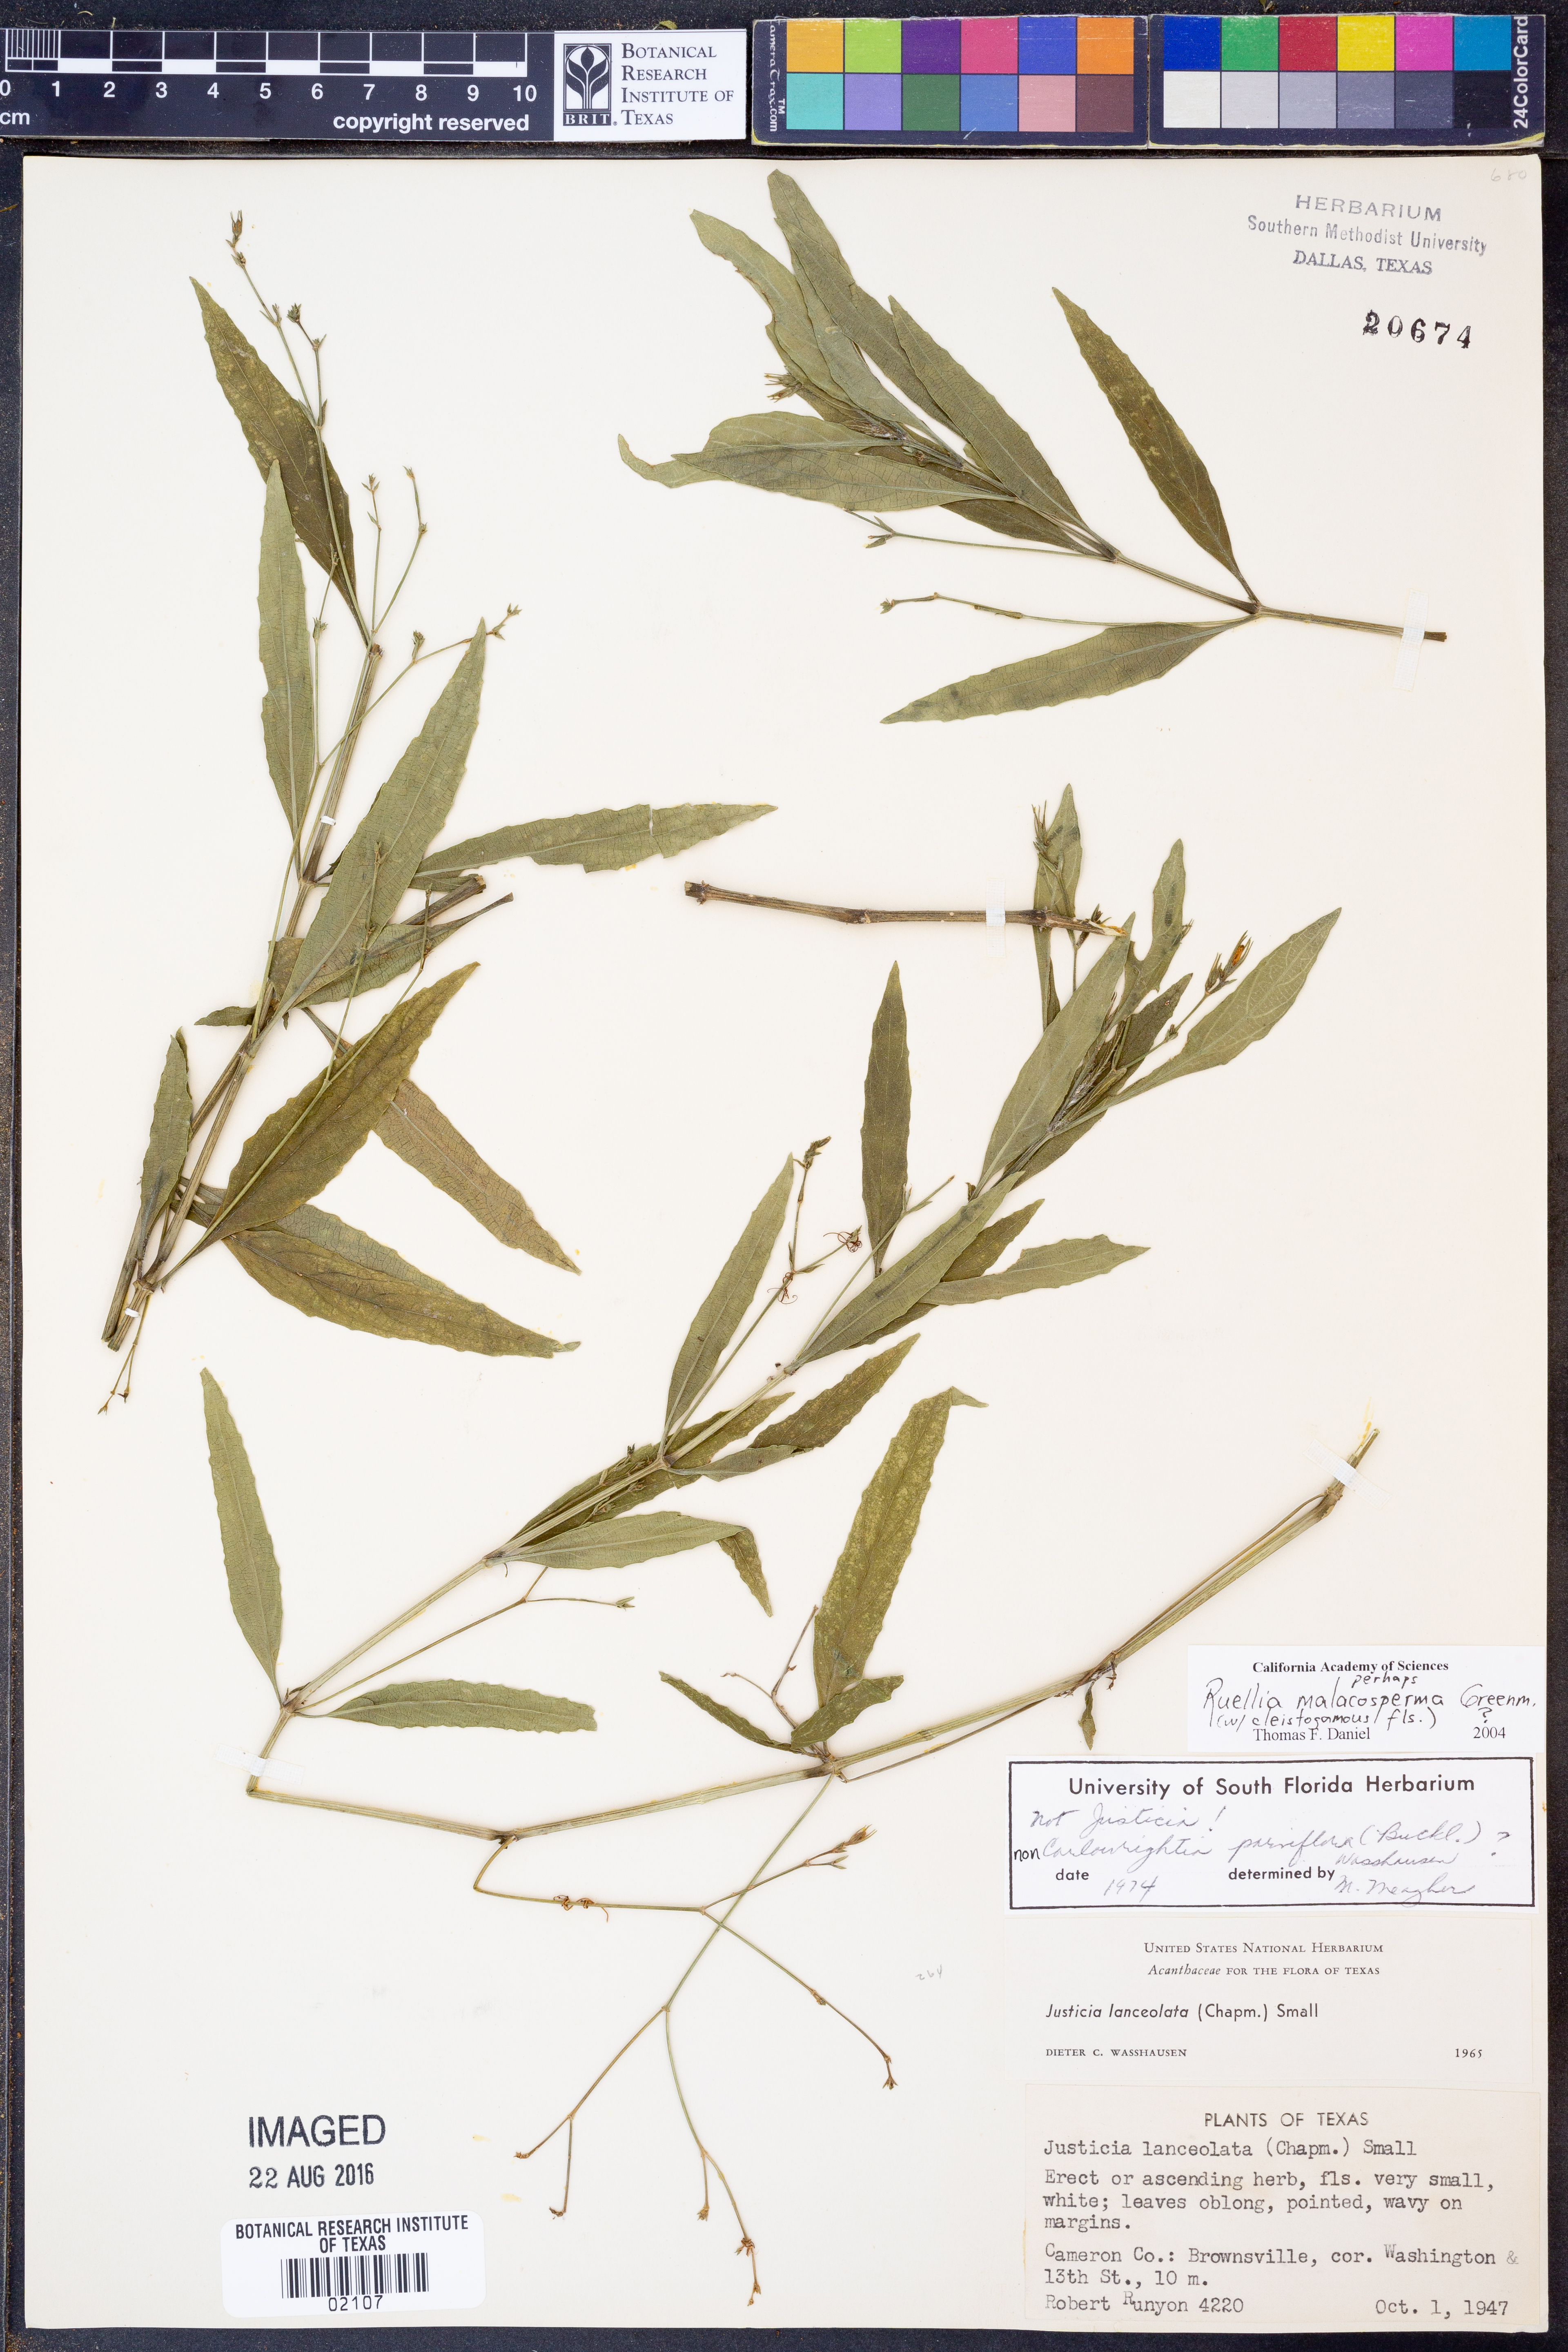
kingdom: Plantae
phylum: Tracheophyta
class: Magnoliopsida
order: Lamiales
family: Acanthaceae
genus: Ruellia
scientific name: Ruellia malacosperma
